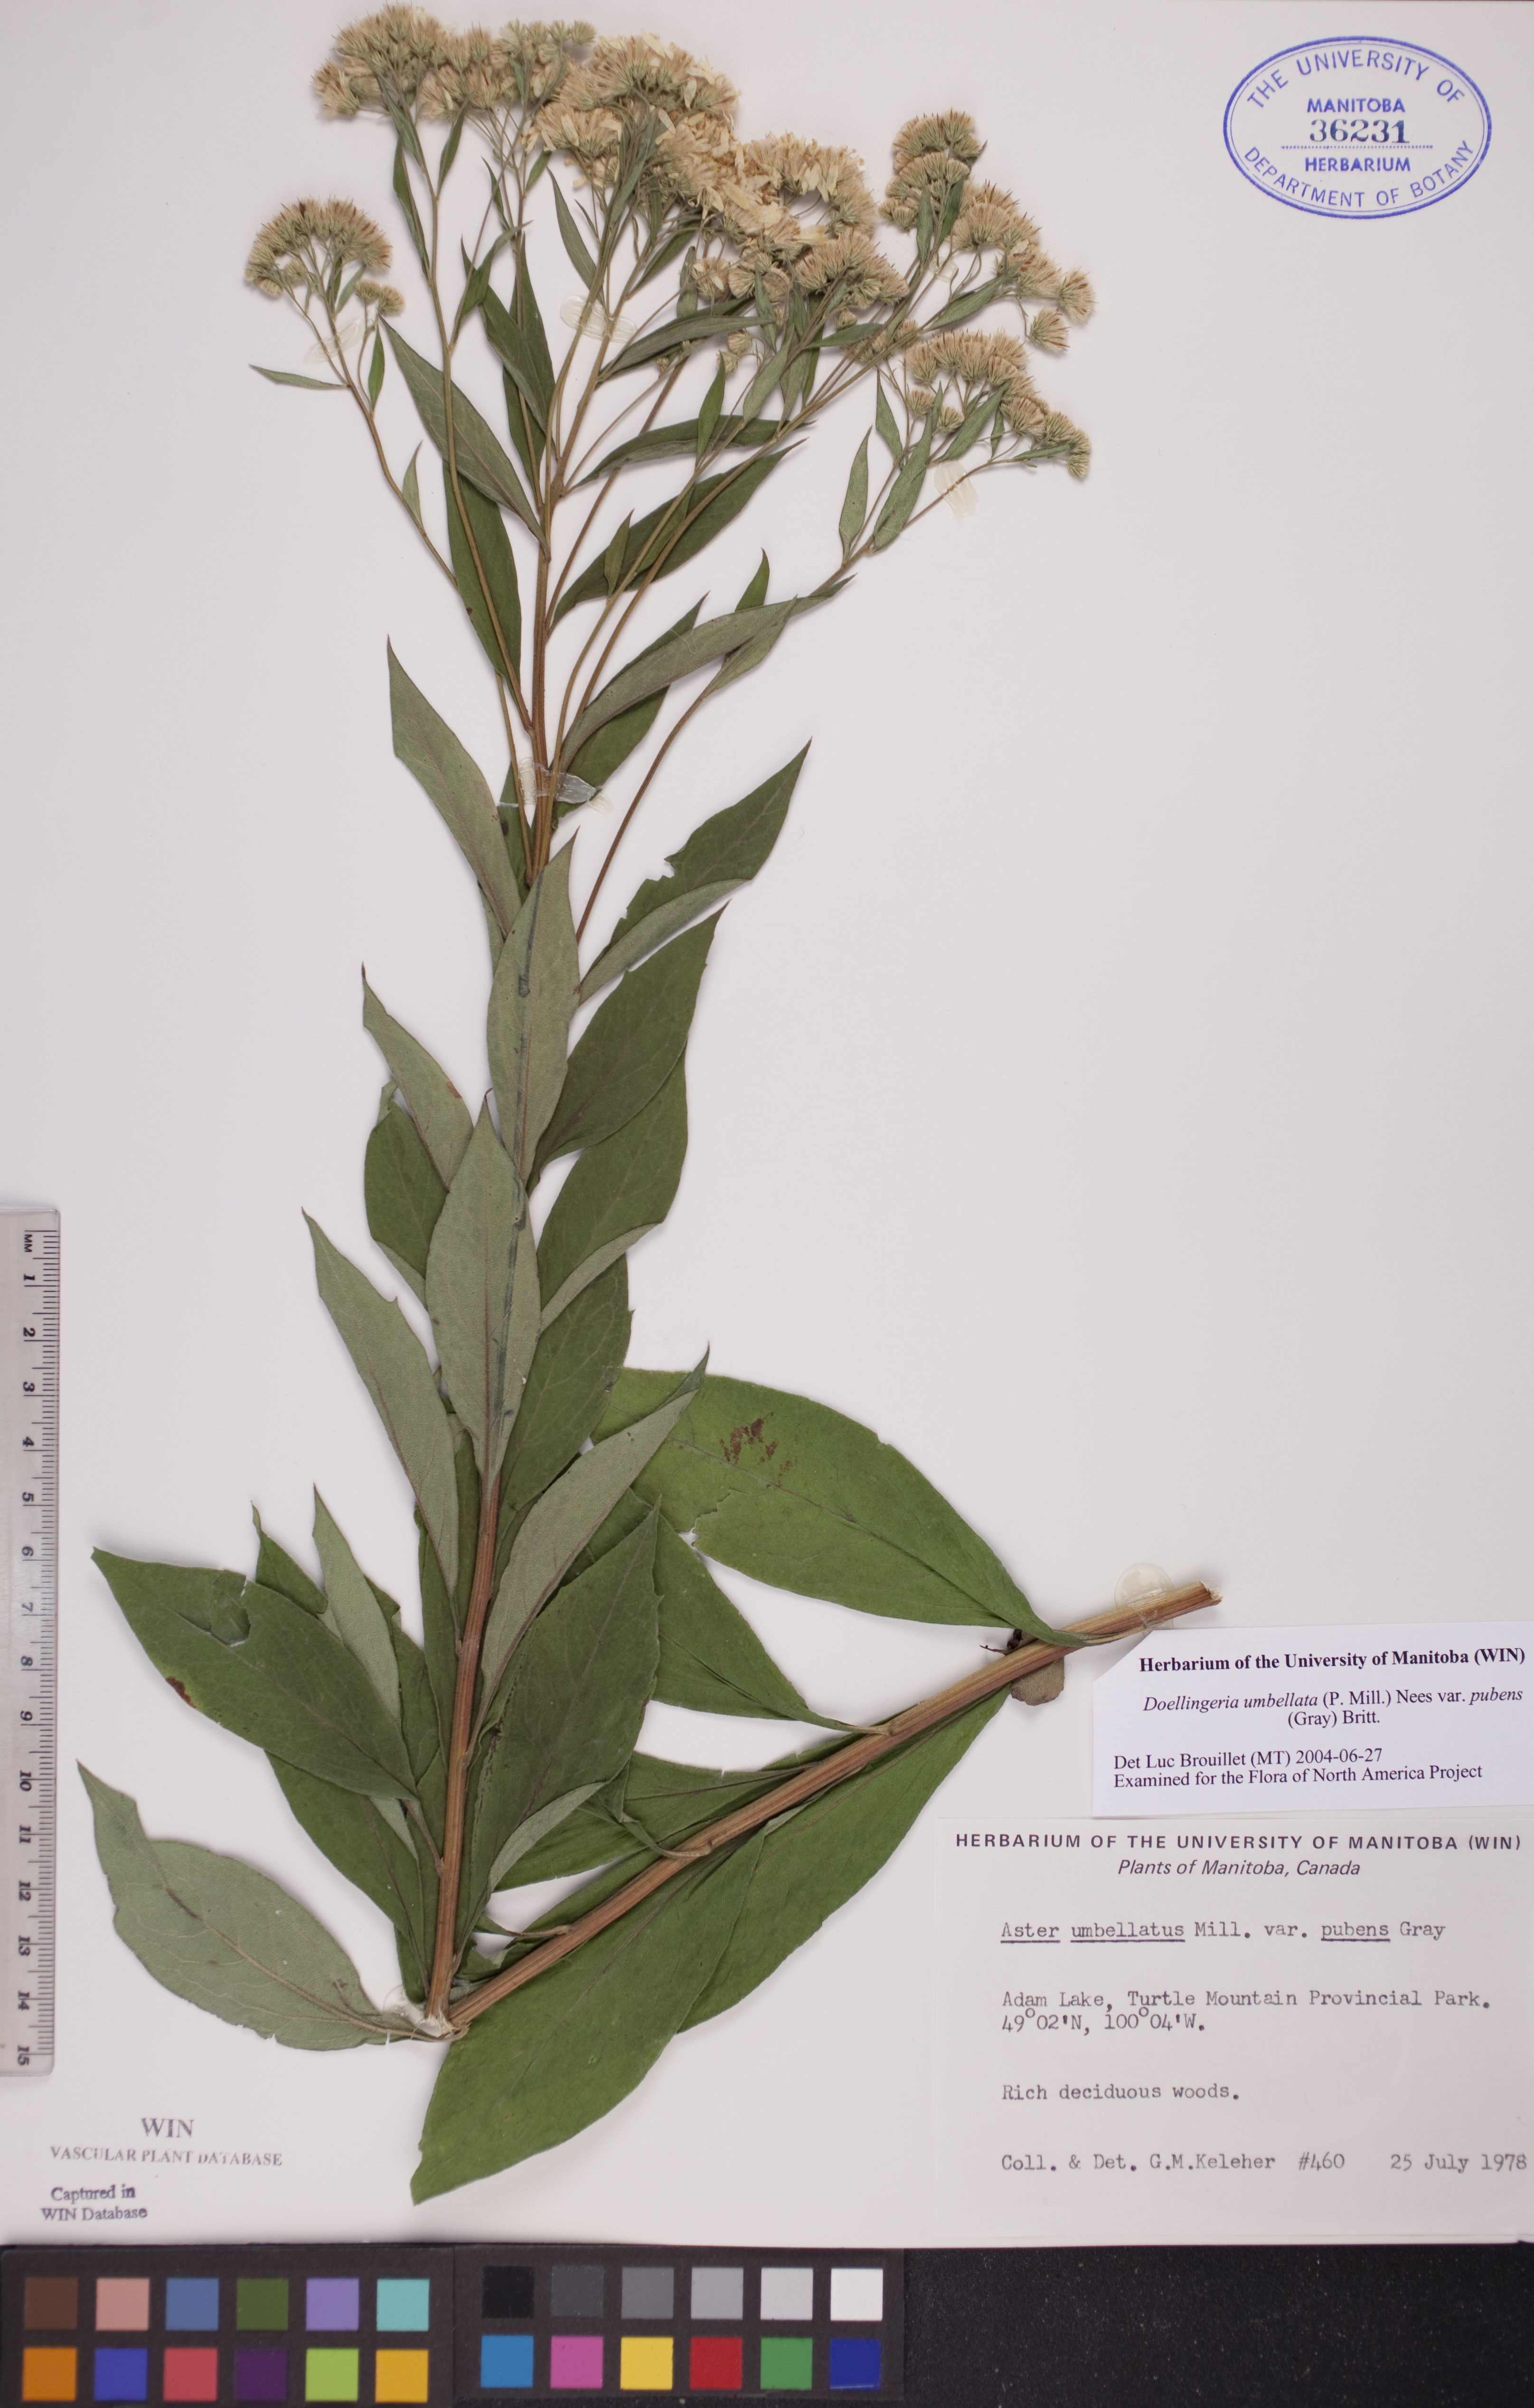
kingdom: Plantae
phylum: Tracheophyta
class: Magnoliopsida
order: Asterales
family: Asteraceae
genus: Doellingeria
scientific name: Doellingeria umbellata
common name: Flat-top white aster
